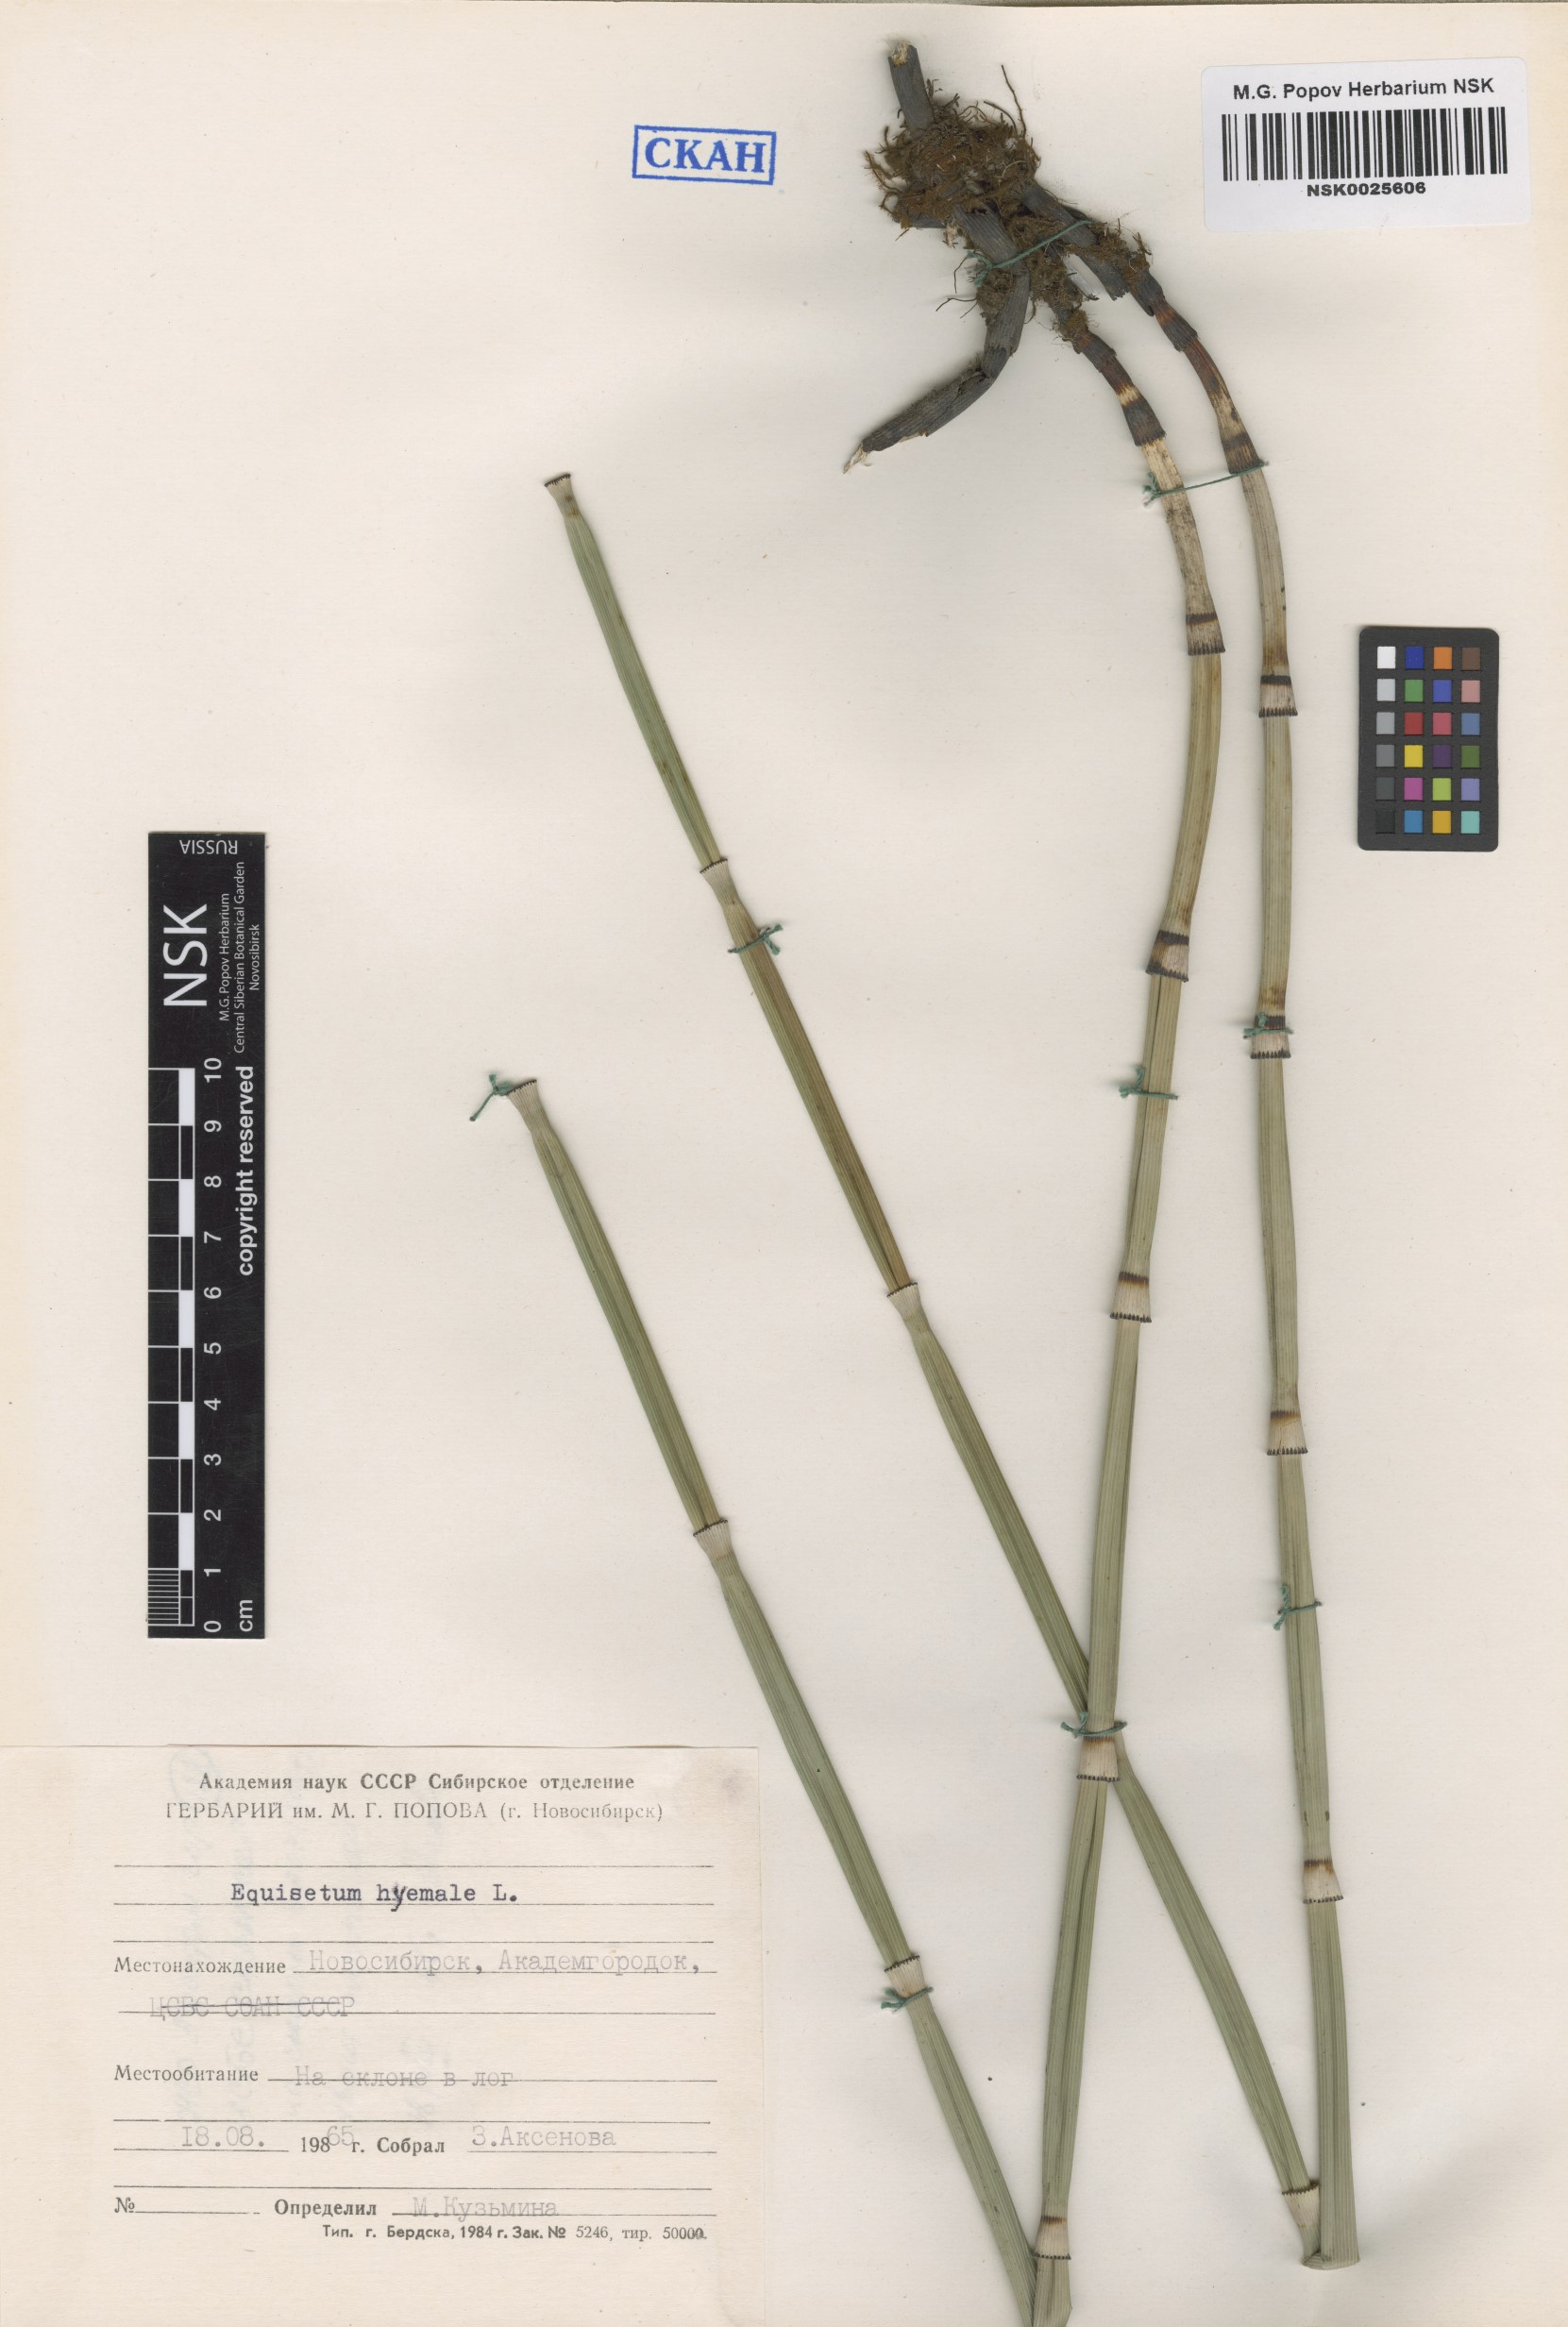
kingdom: Plantae
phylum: Tracheophyta
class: Polypodiopsida
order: Equisetales
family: Equisetaceae
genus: Equisetum
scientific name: Equisetum hyemale
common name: Rough horsetail
